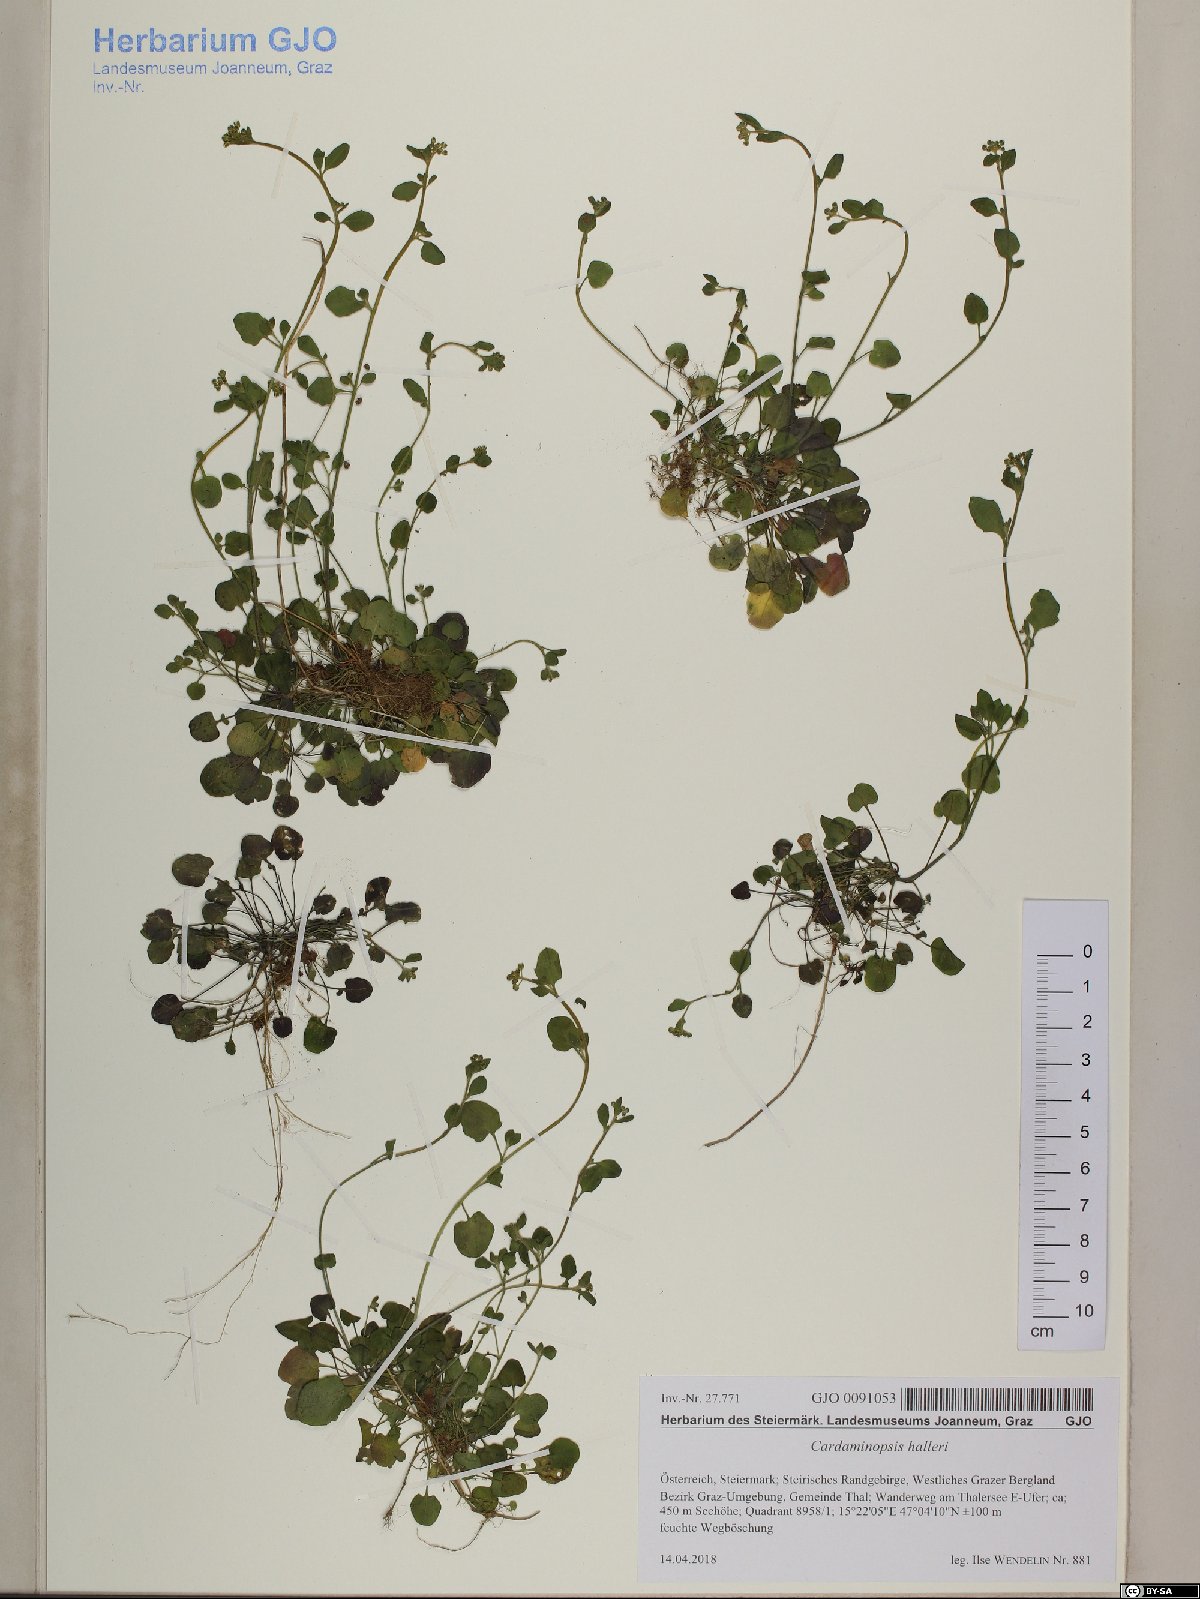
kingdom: Plantae
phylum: Tracheophyta
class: Magnoliopsida
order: Brassicales
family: Brassicaceae
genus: Arabidopsis
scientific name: Arabidopsis halleri
